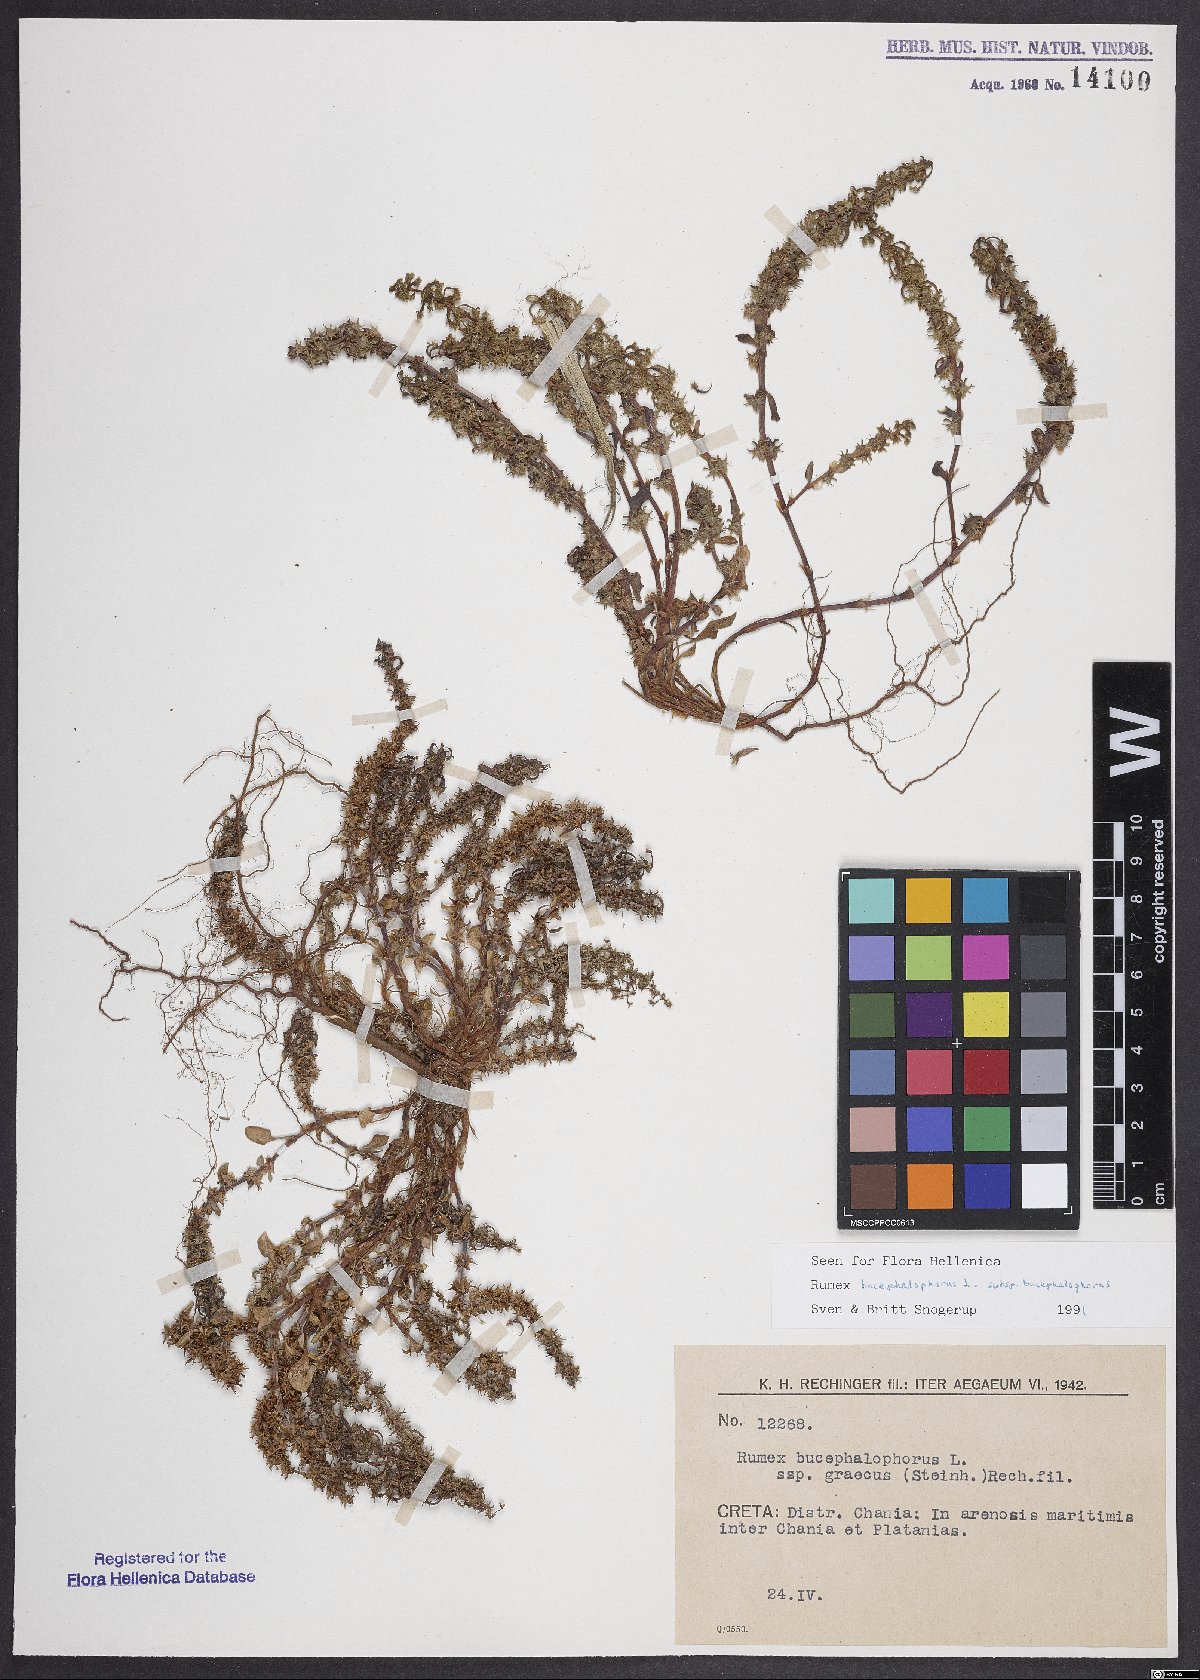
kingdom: Plantae
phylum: Tracheophyta
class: Magnoliopsida
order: Caryophyllales
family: Polygonaceae
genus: Rumex
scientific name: Rumex bucephalophorus
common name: Red dock
